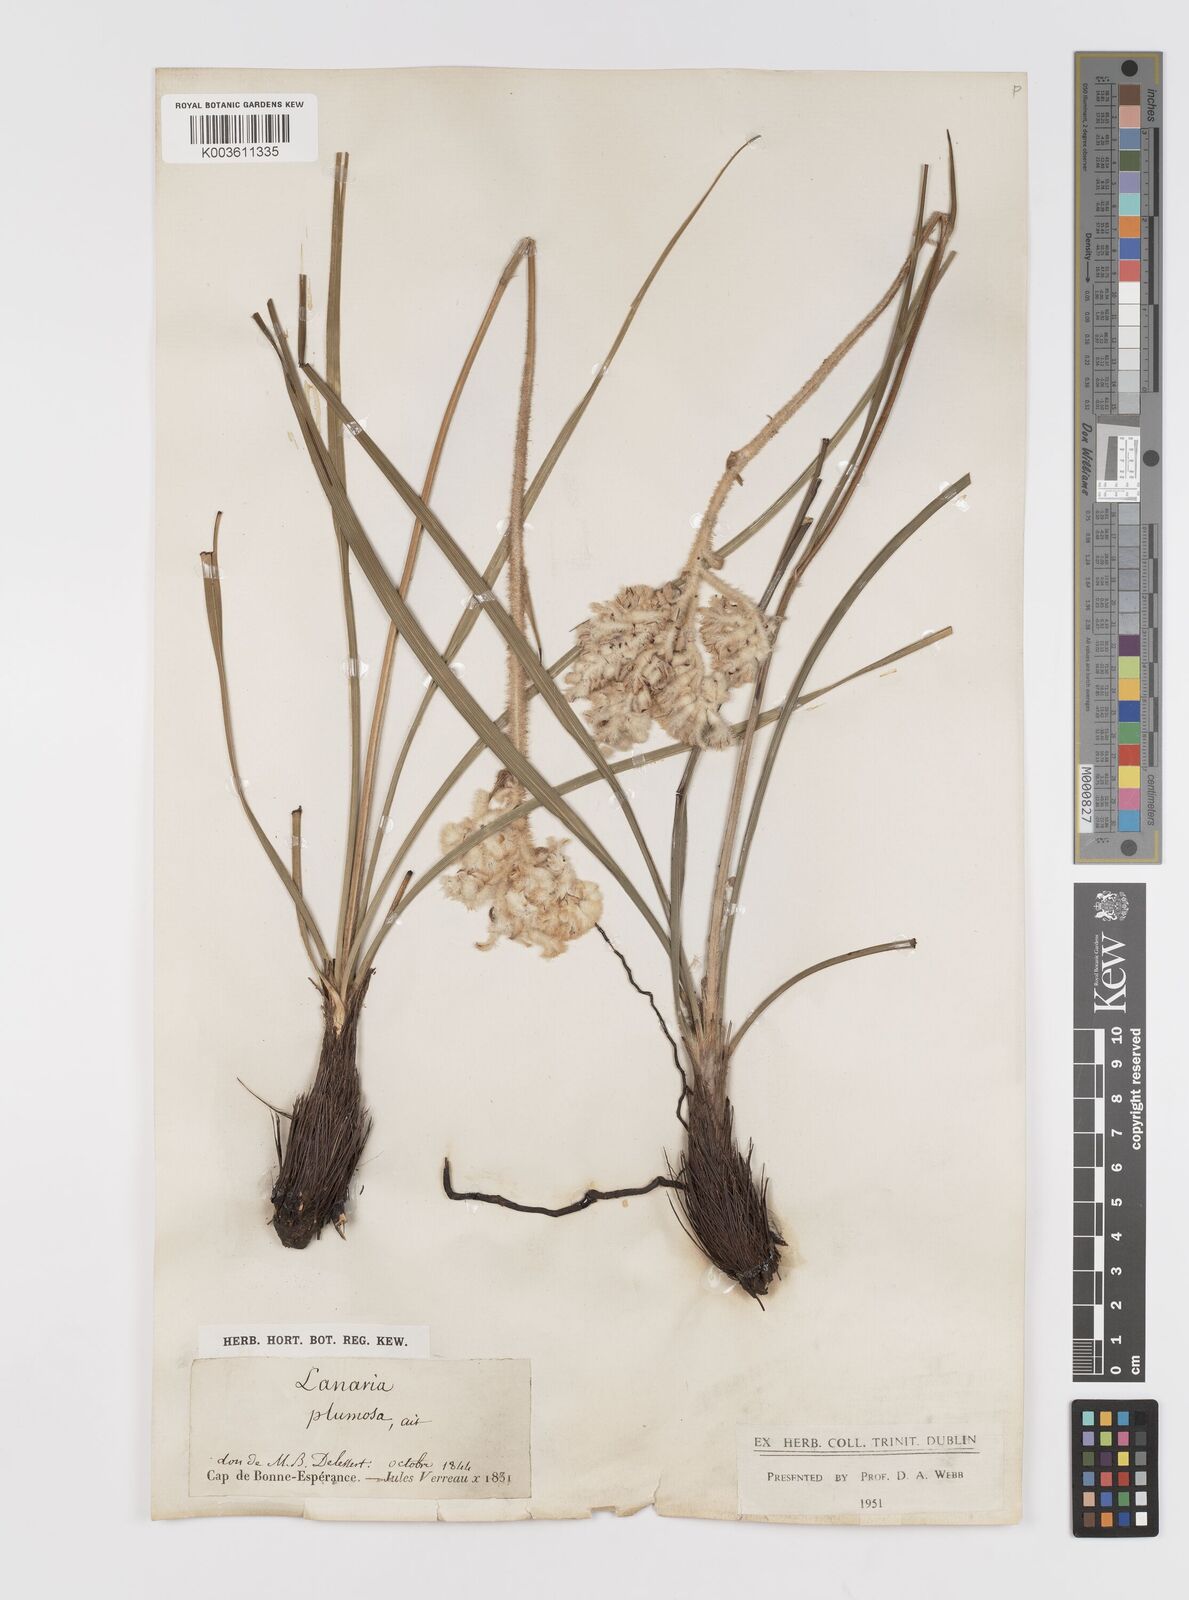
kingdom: Plantae
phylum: Tracheophyta
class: Liliopsida
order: Asparagales
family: Lanariaceae
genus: Lanaria
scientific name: Lanaria lanata
